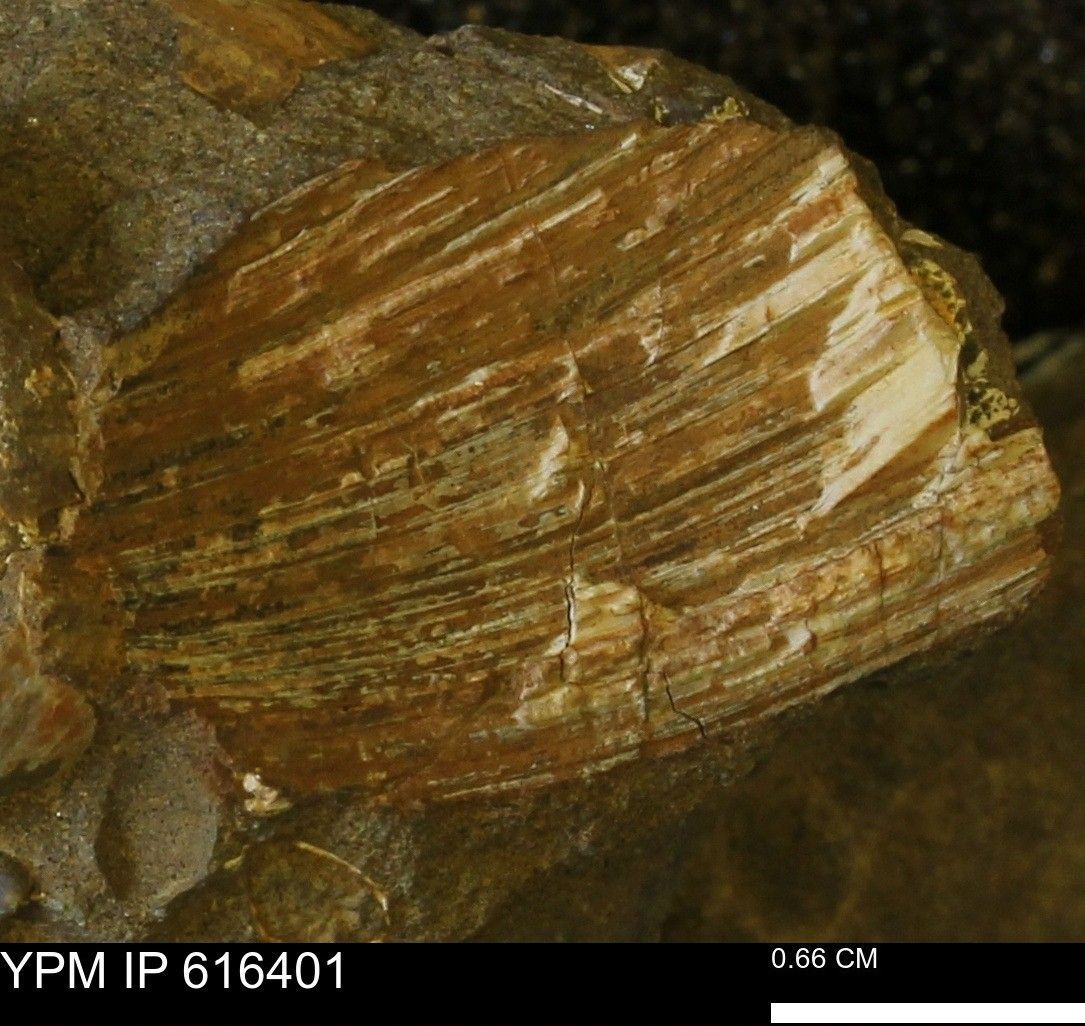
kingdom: Animalia
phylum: Mollusca
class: Bivalvia
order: Cardiida
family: Cardiidae
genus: Protocardia
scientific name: Protocardia Cardium subquadratum
